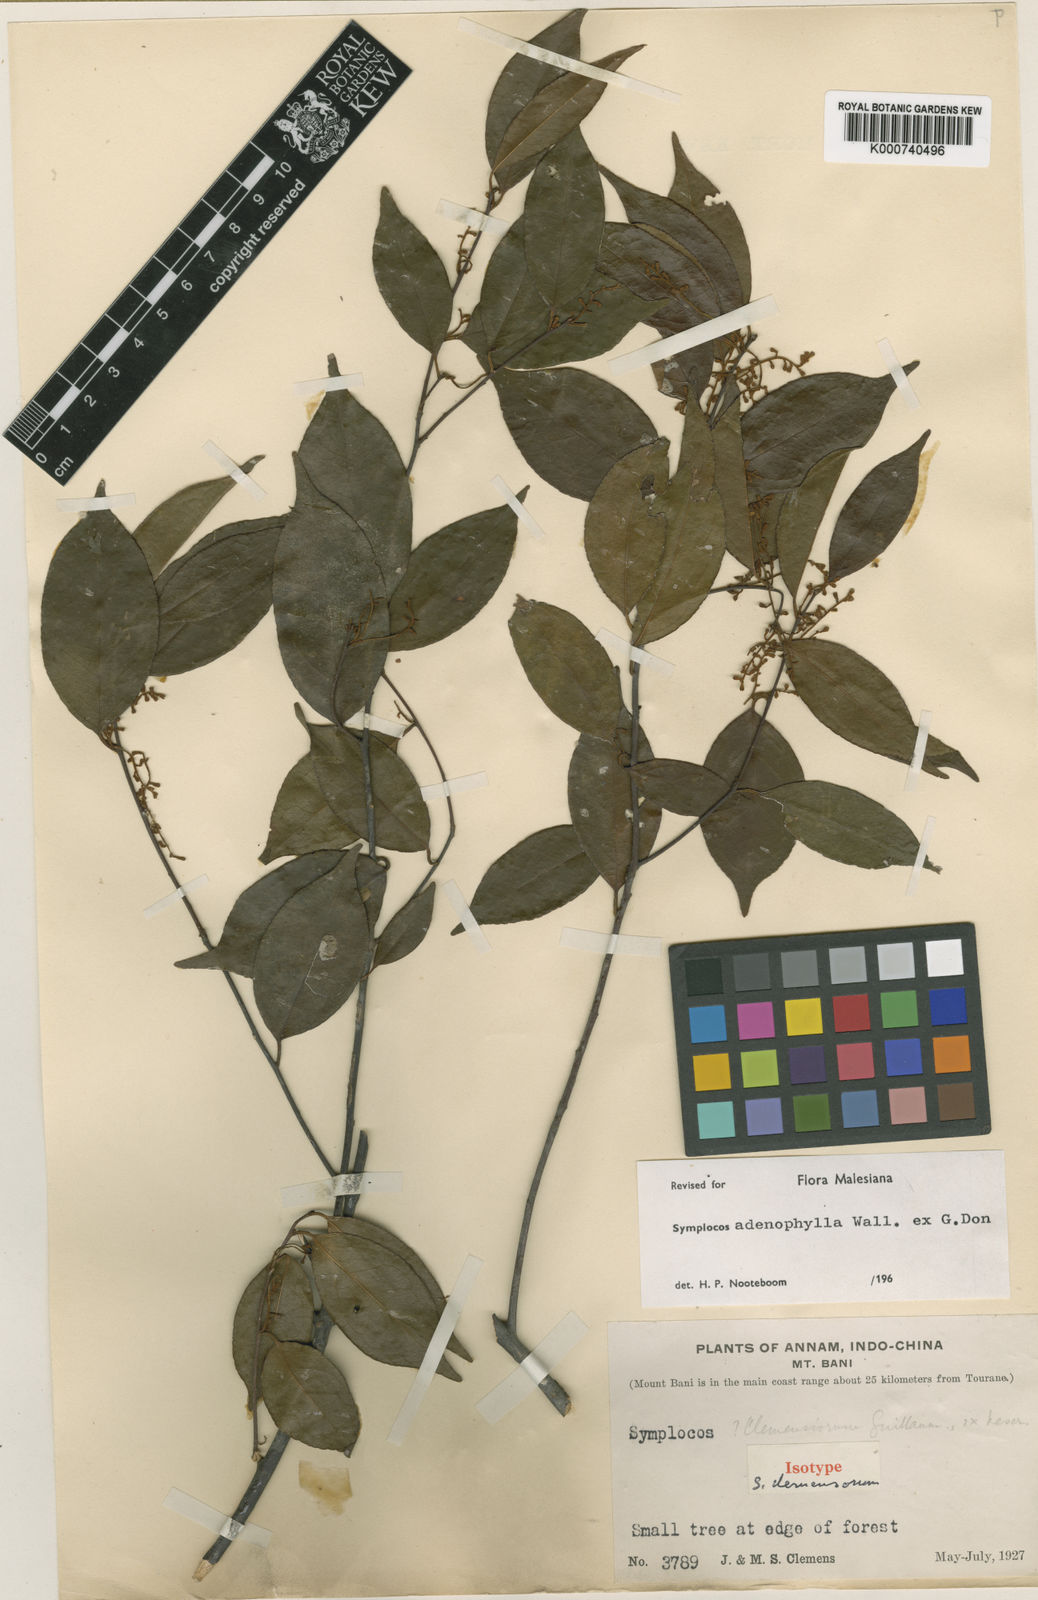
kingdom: Plantae
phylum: Tracheophyta
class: Magnoliopsida
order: Ericales
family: Symplocaceae
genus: Symplocos
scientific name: Symplocos adenophylla
